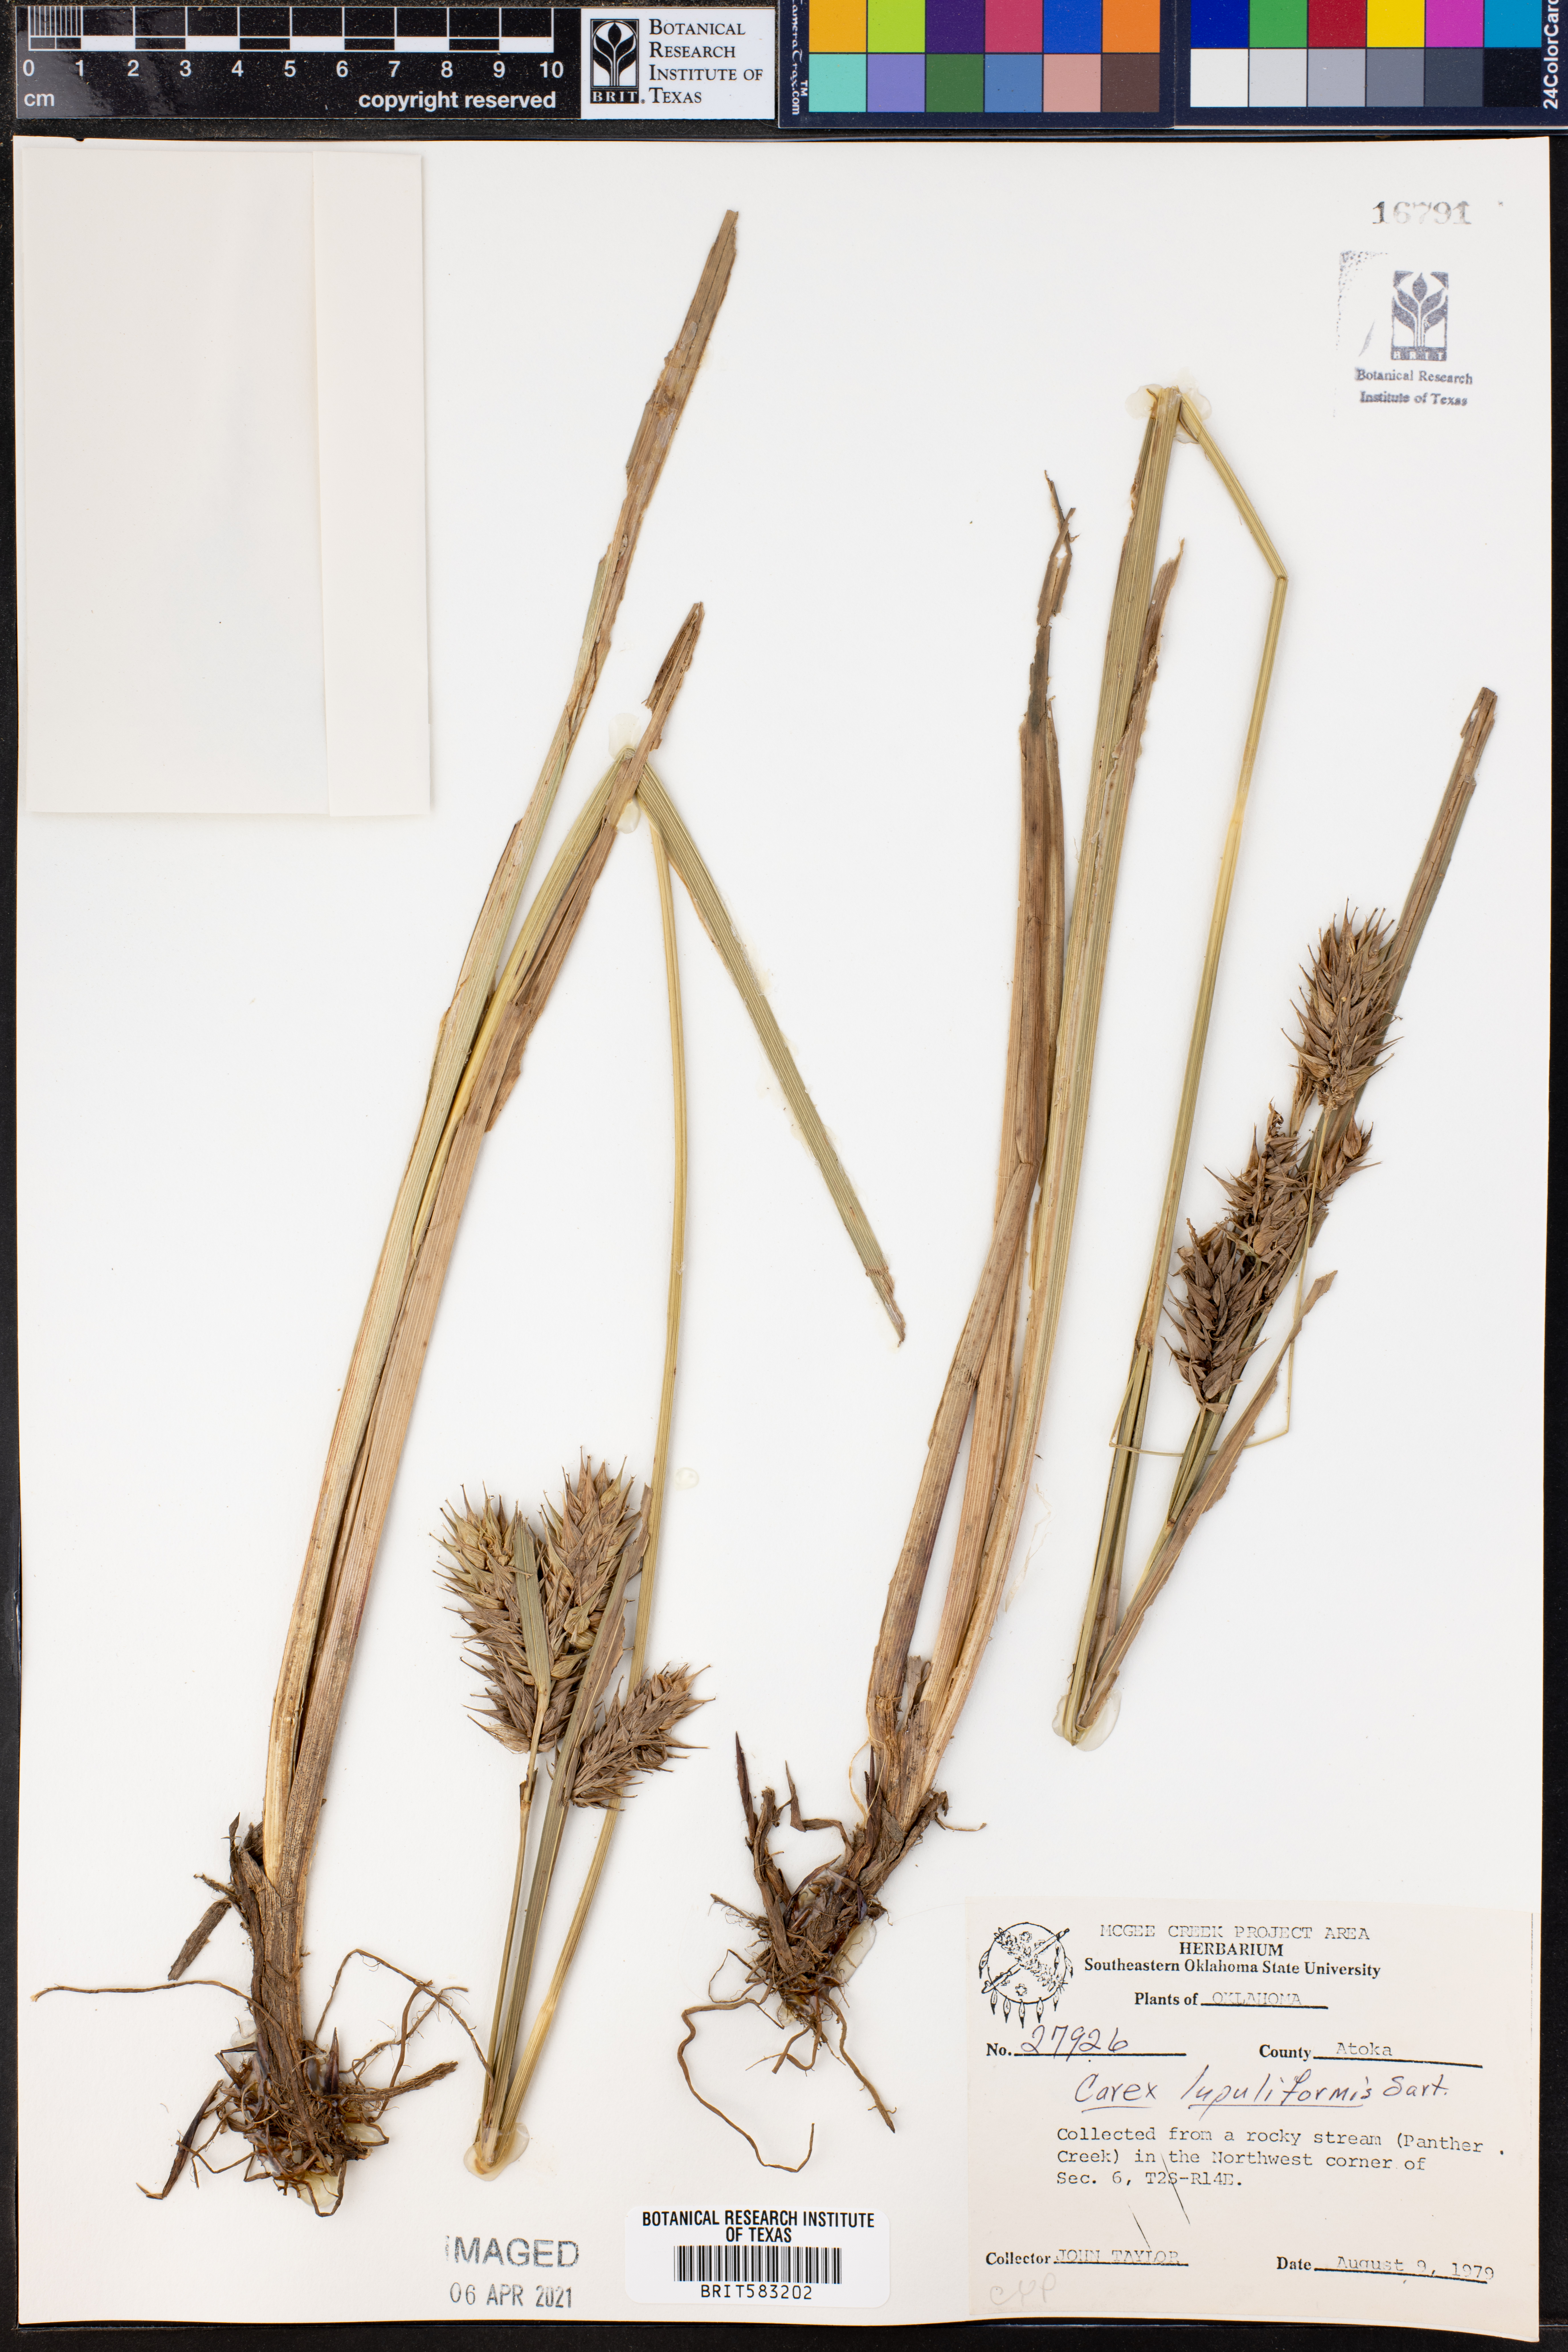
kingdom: Plantae
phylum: Tracheophyta
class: Liliopsida
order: Poales
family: Cyperaceae
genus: Carex
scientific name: Carex lupuliformis
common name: False hop sedge
